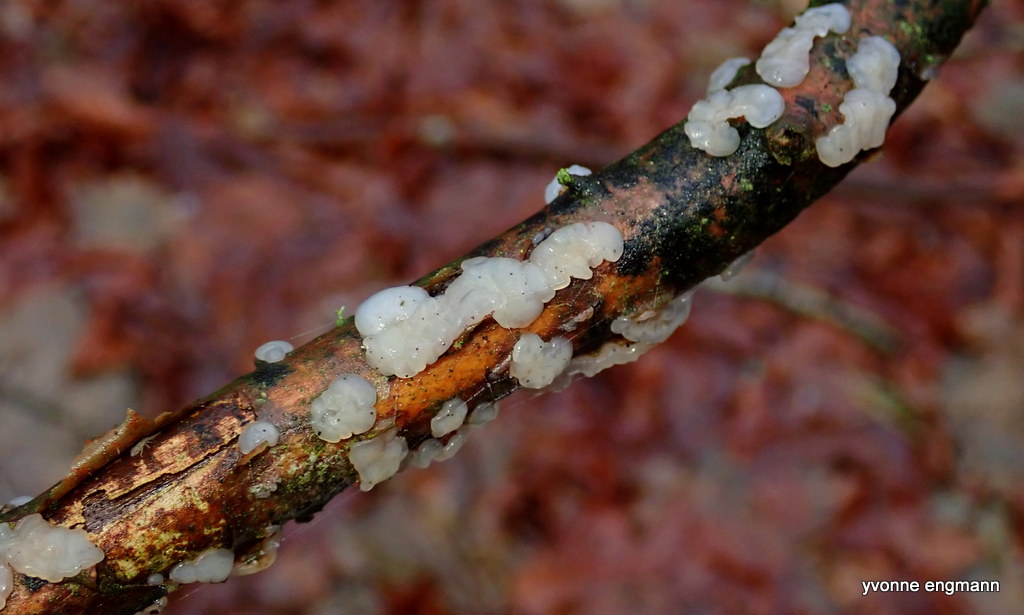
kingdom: Fungi
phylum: Basidiomycota
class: Agaricomycetes
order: Auriculariales
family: Hyaloriaceae
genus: Myxarium
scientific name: Myxarium nucleatum
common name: klar bævretop
